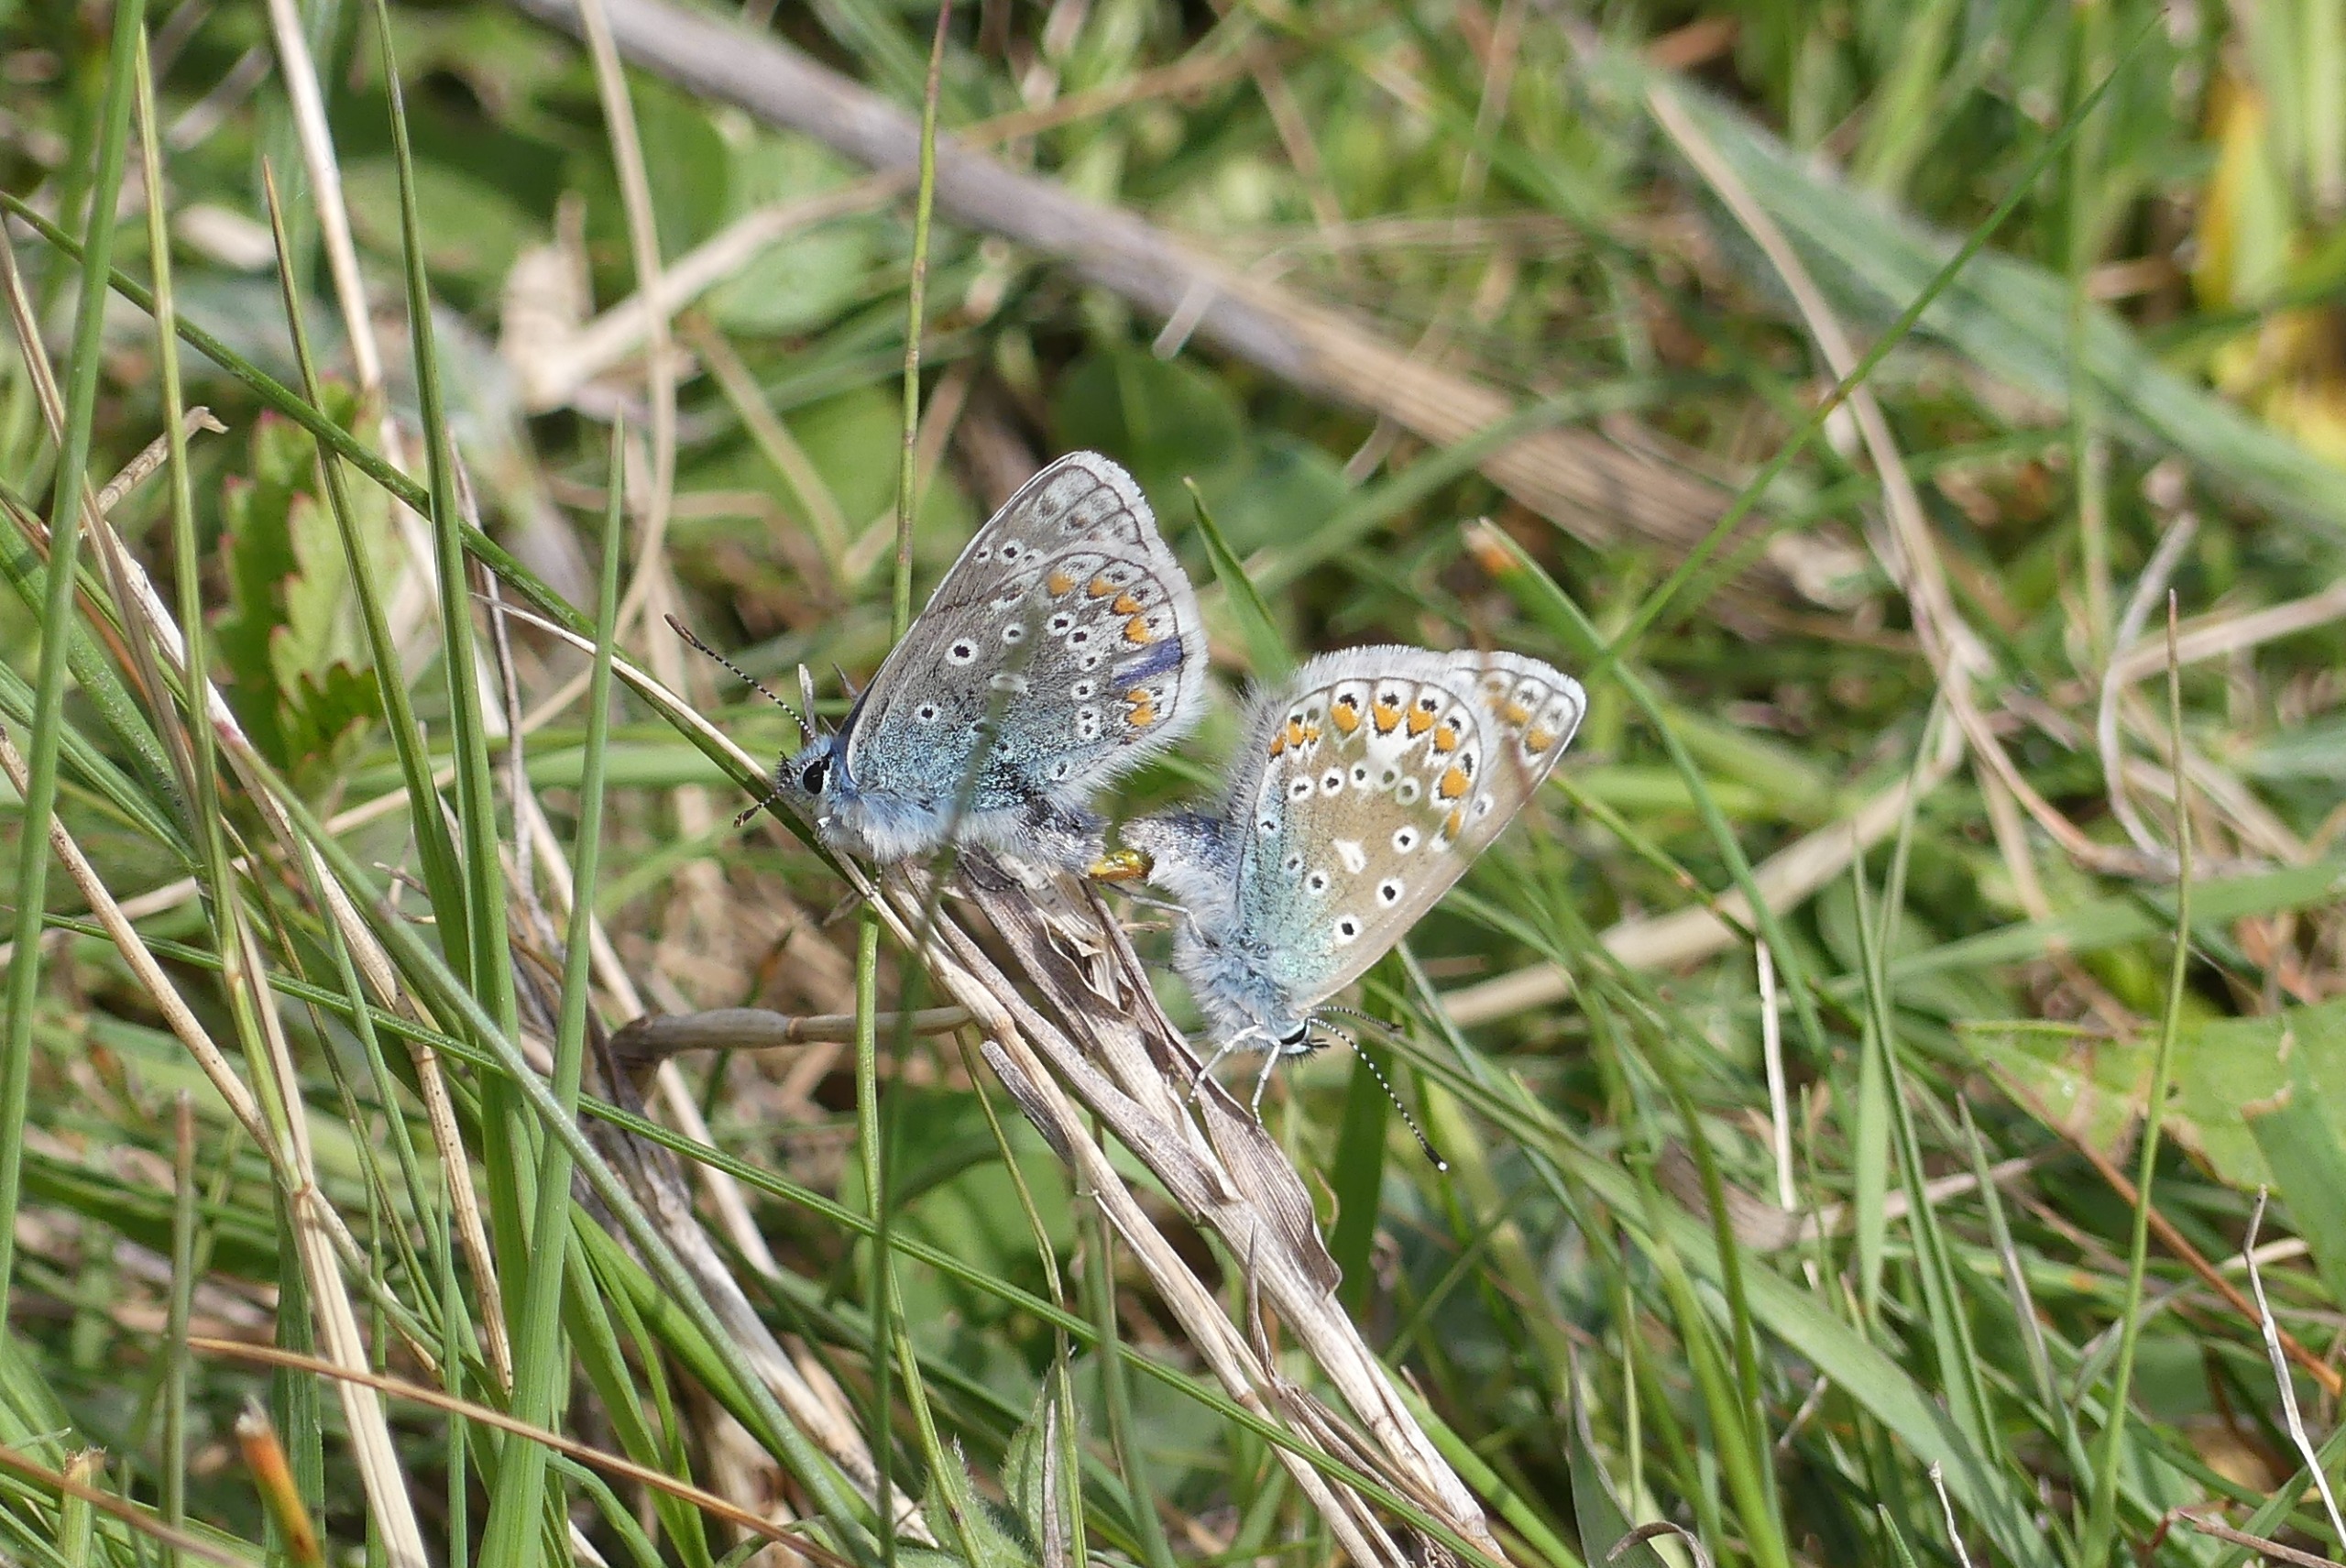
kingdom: Animalia
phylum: Arthropoda
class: Insecta
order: Lepidoptera
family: Lycaenidae
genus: Polyommatus
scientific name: Polyommatus icarus
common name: Almindelig blåfugl
